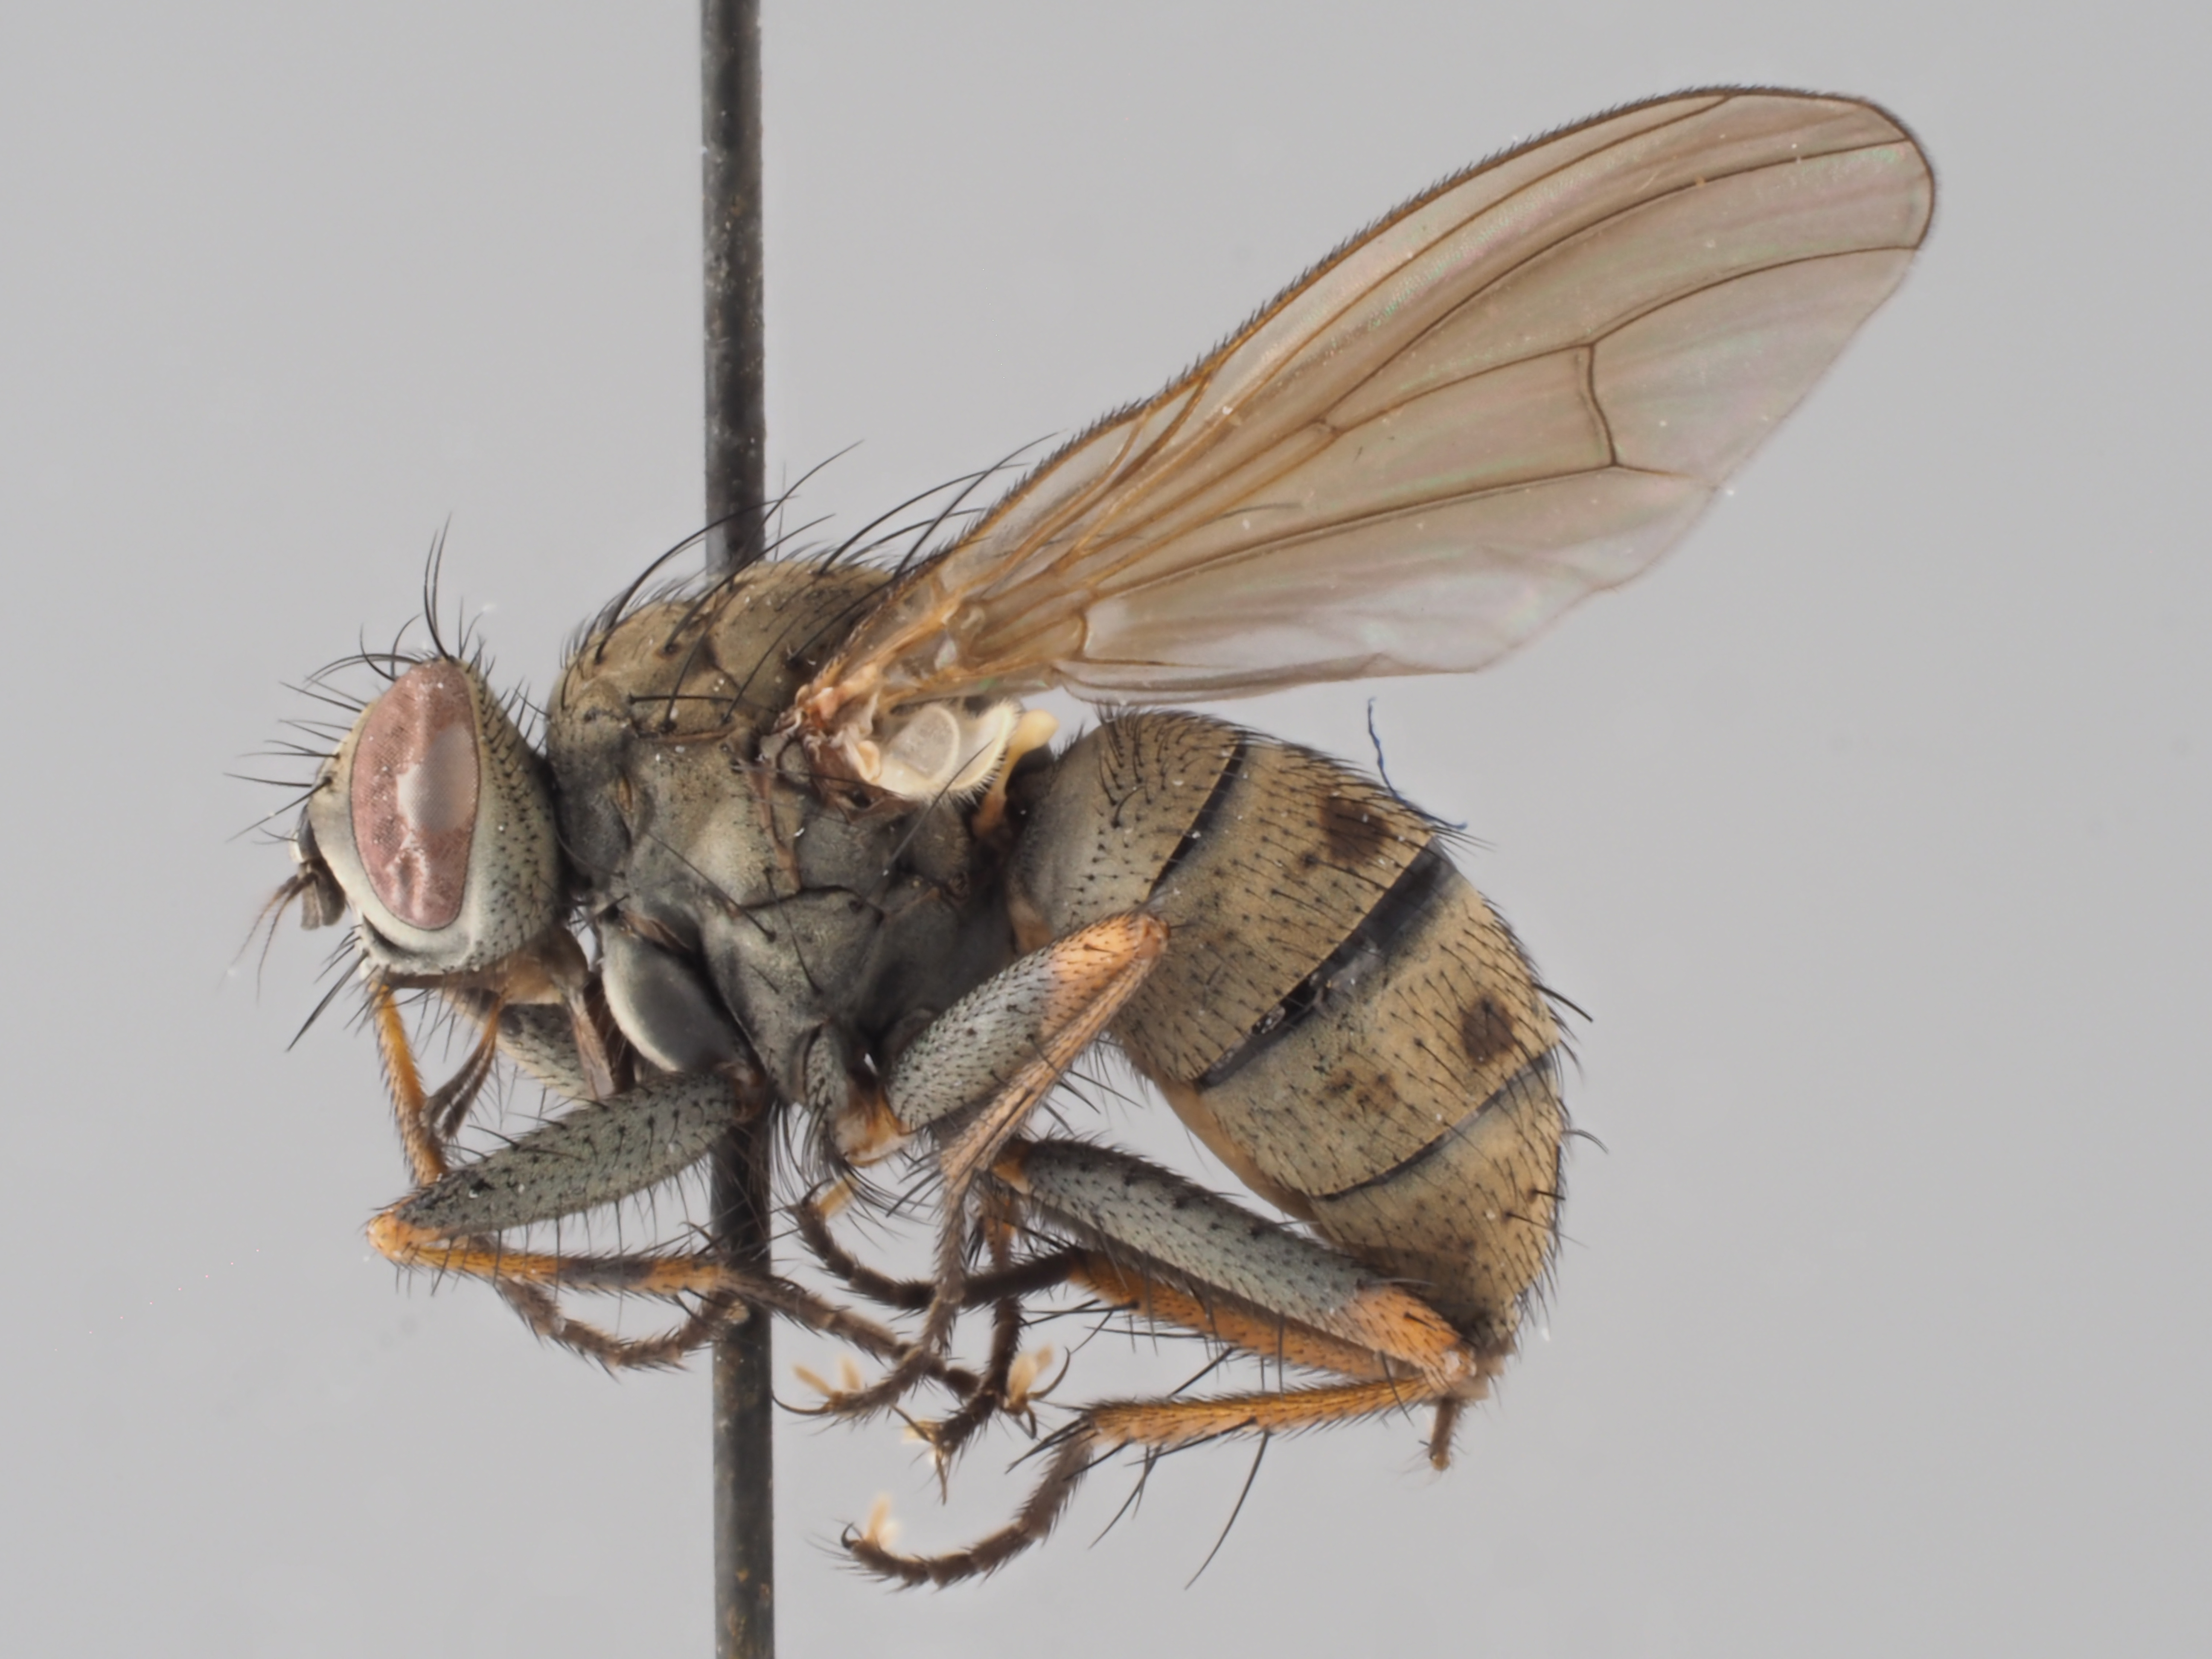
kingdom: Animalia
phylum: Arthropoda
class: Insecta
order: Diptera
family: Muscidae
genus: Coenosia
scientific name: Coenosia tigrina
